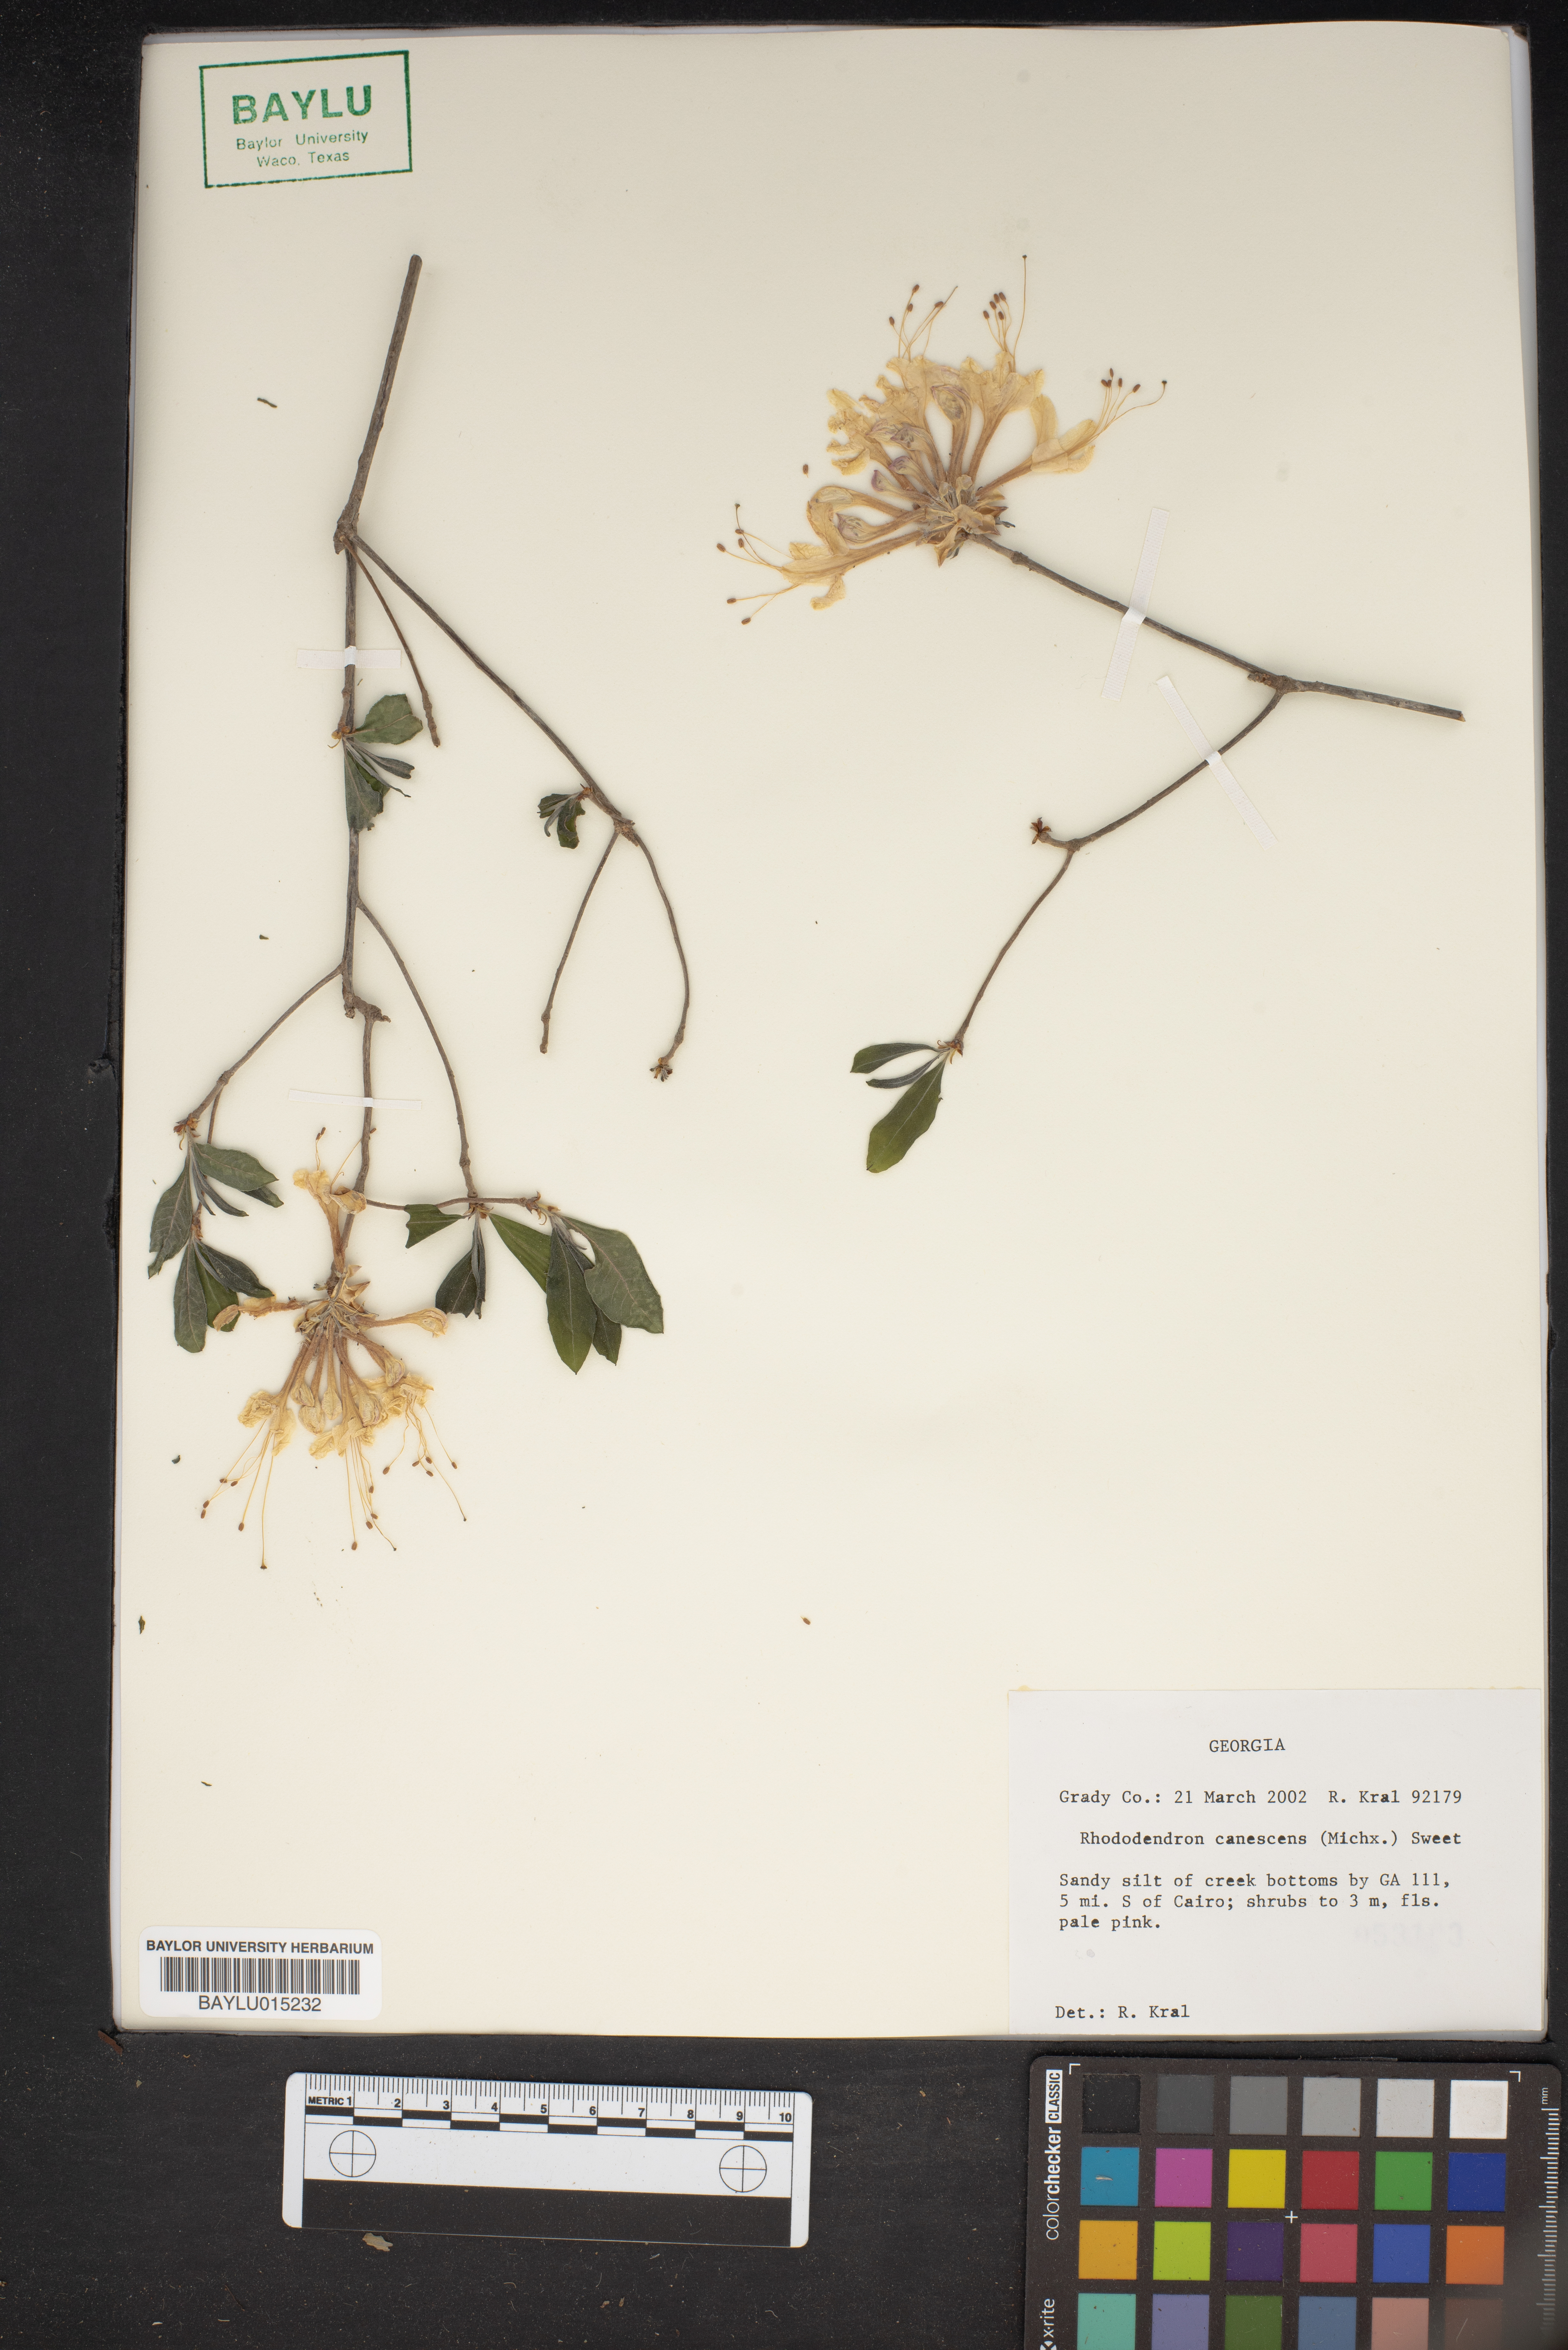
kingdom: Plantae
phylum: Tracheophyta
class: Magnoliopsida
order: Ericales
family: Ericaceae
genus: Rhododendron
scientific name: Rhododendron canescens
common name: Mountain azalea
